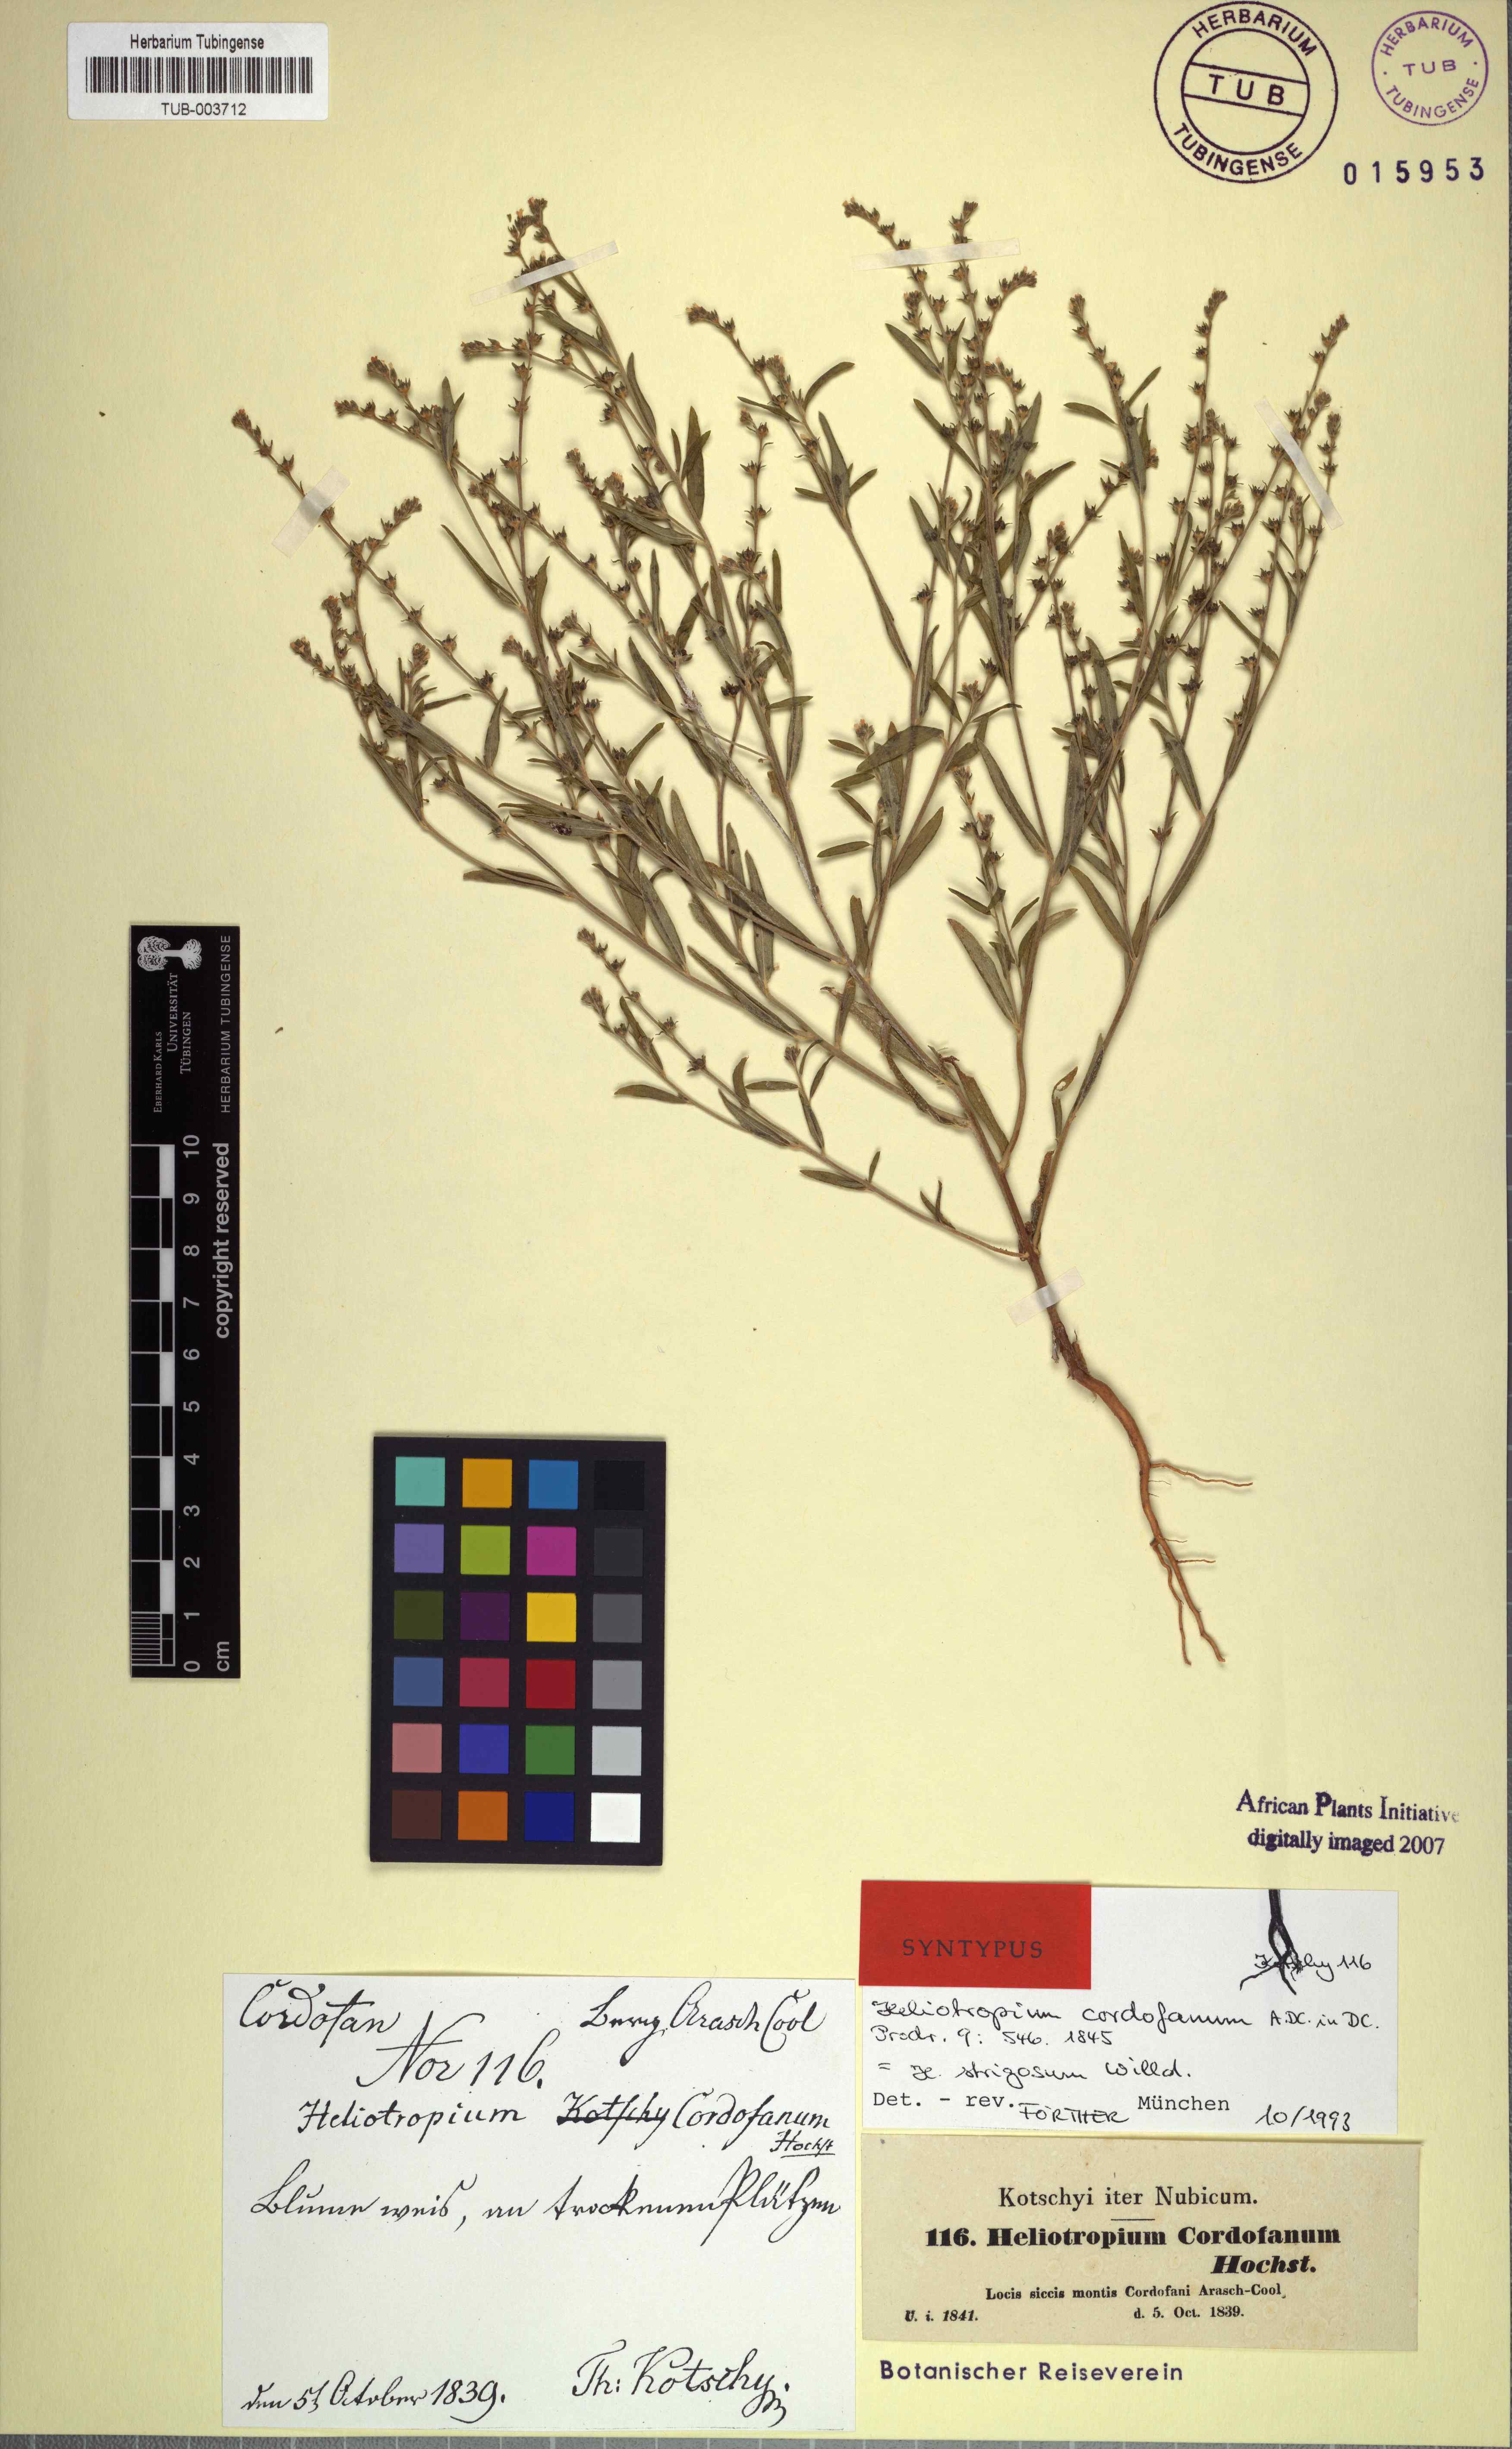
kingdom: Plantae
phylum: Tracheophyta
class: Magnoliopsida
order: Boraginales
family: Heliotropiaceae
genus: Euploca
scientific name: Euploca strigosa
